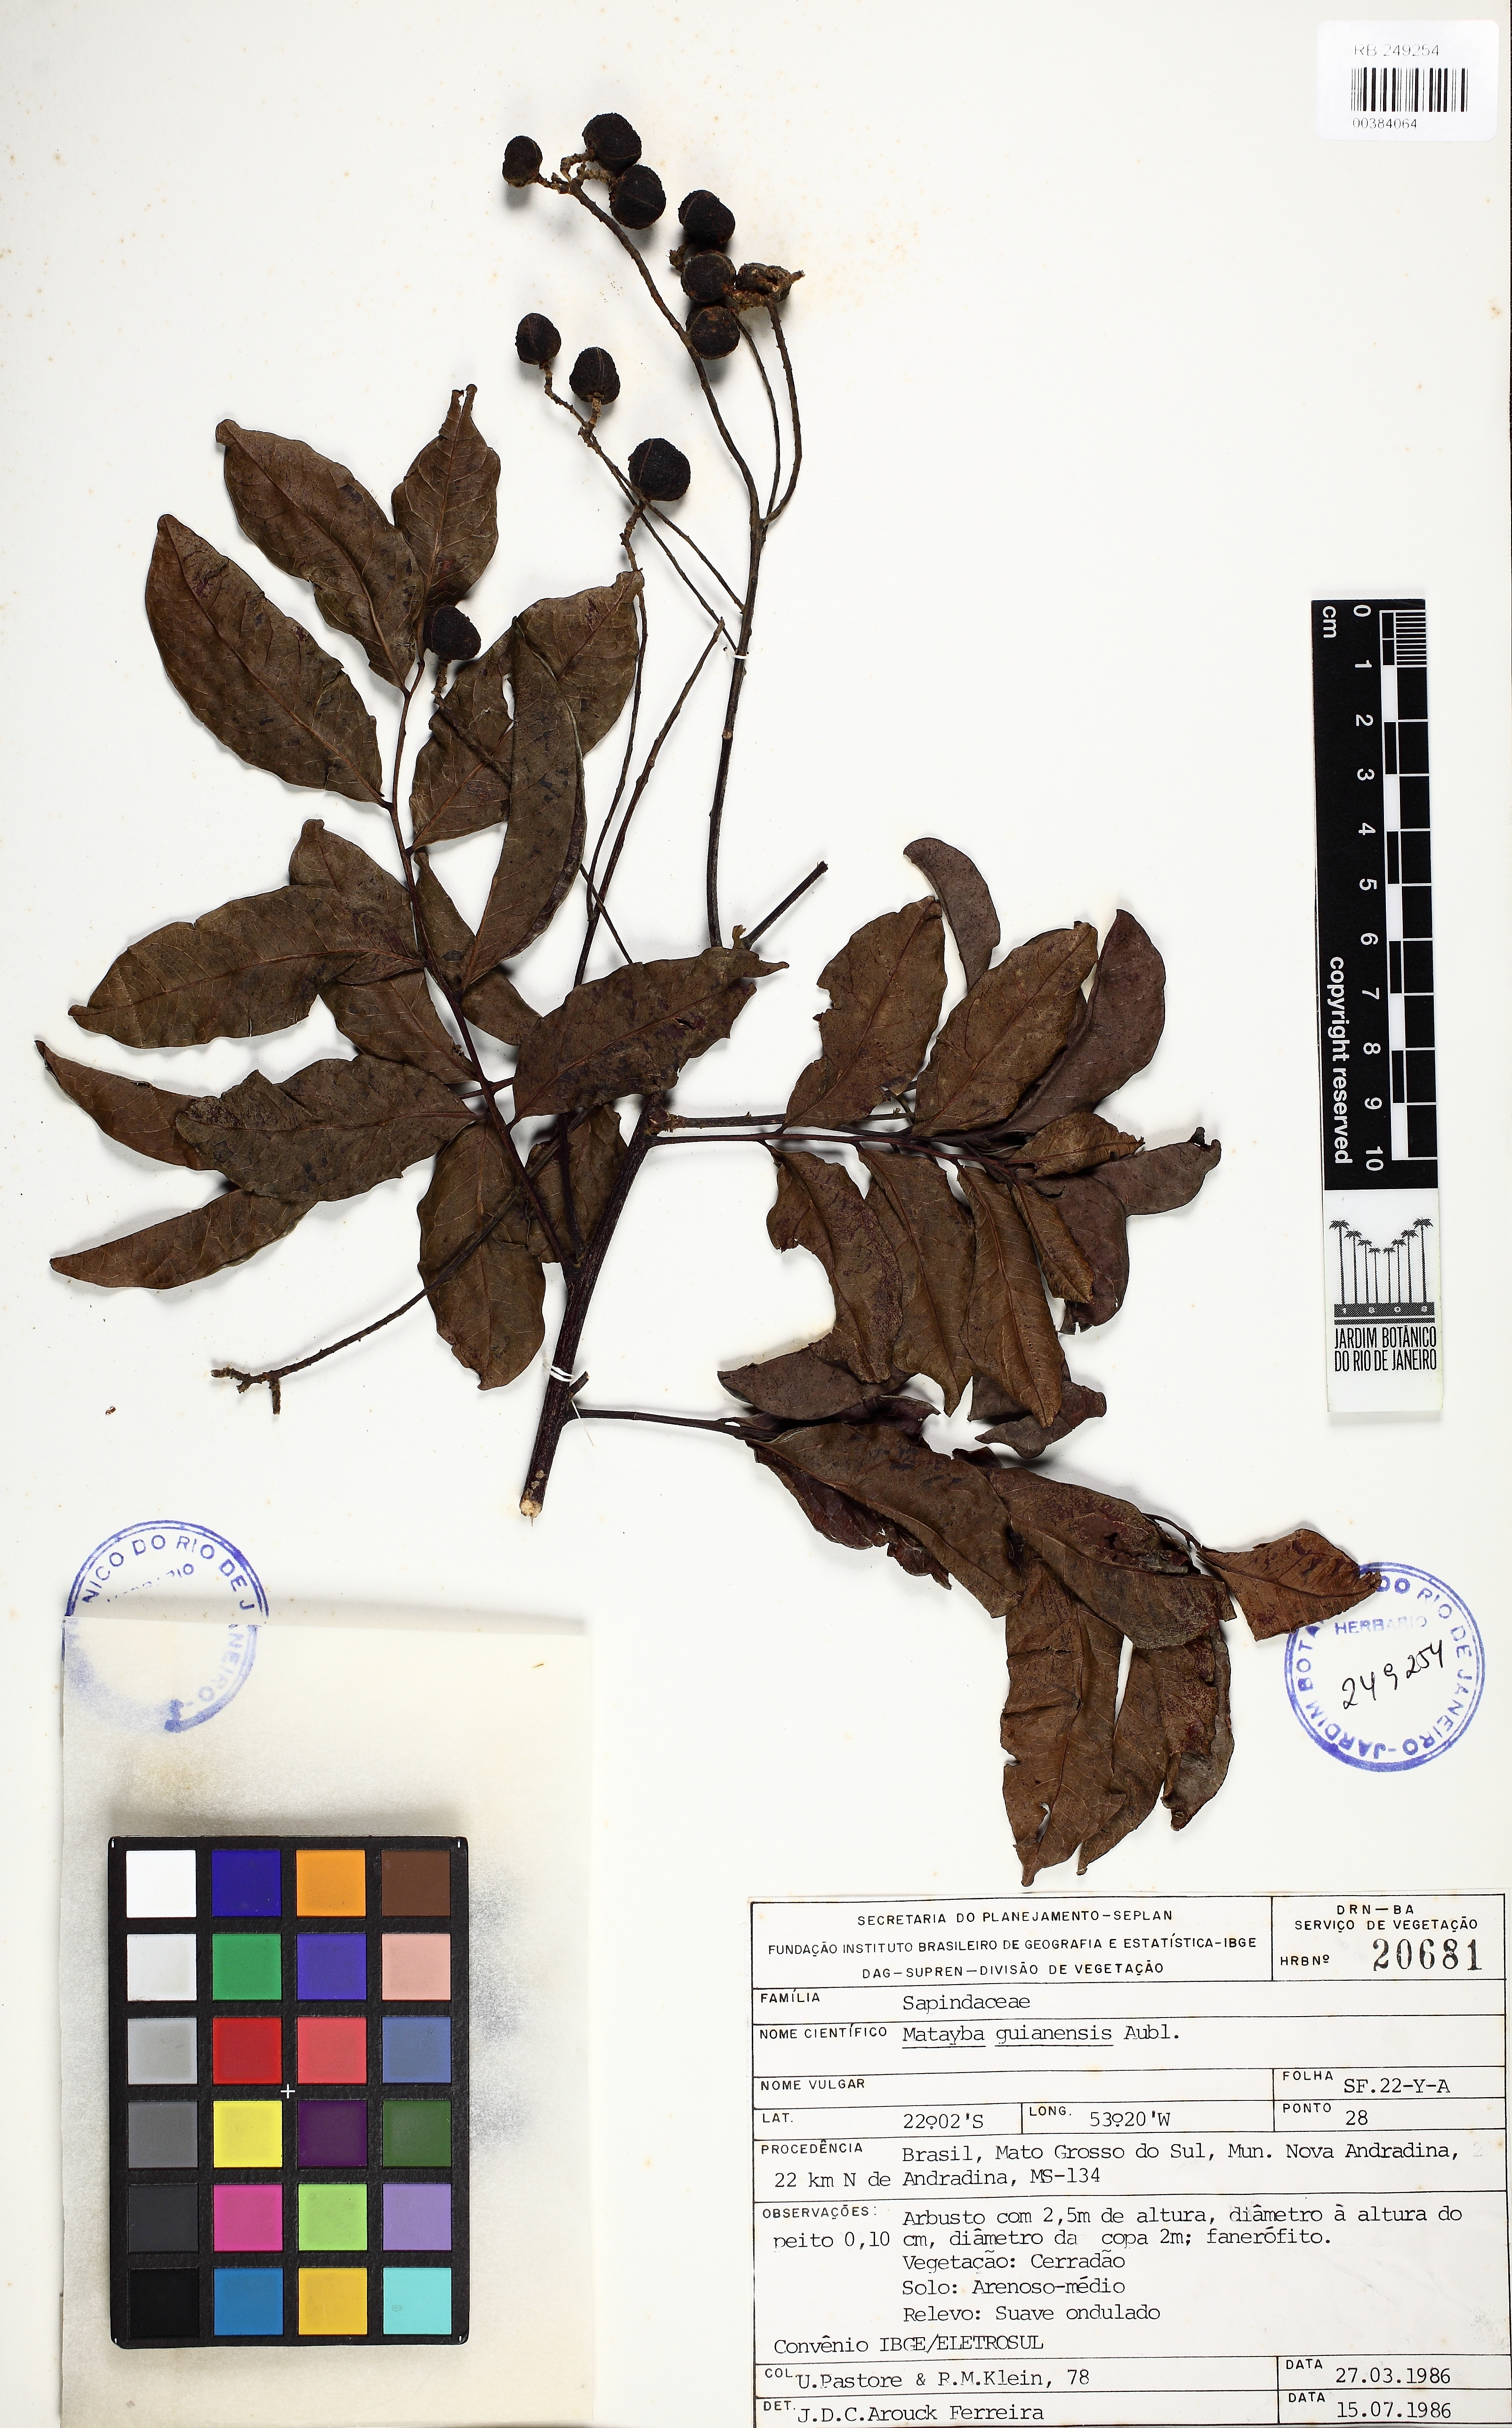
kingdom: Plantae
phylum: Tracheophyta
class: Magnoliopsida
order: Sapindales
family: Sapindaceae
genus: Matayba
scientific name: Matayba guianensis
